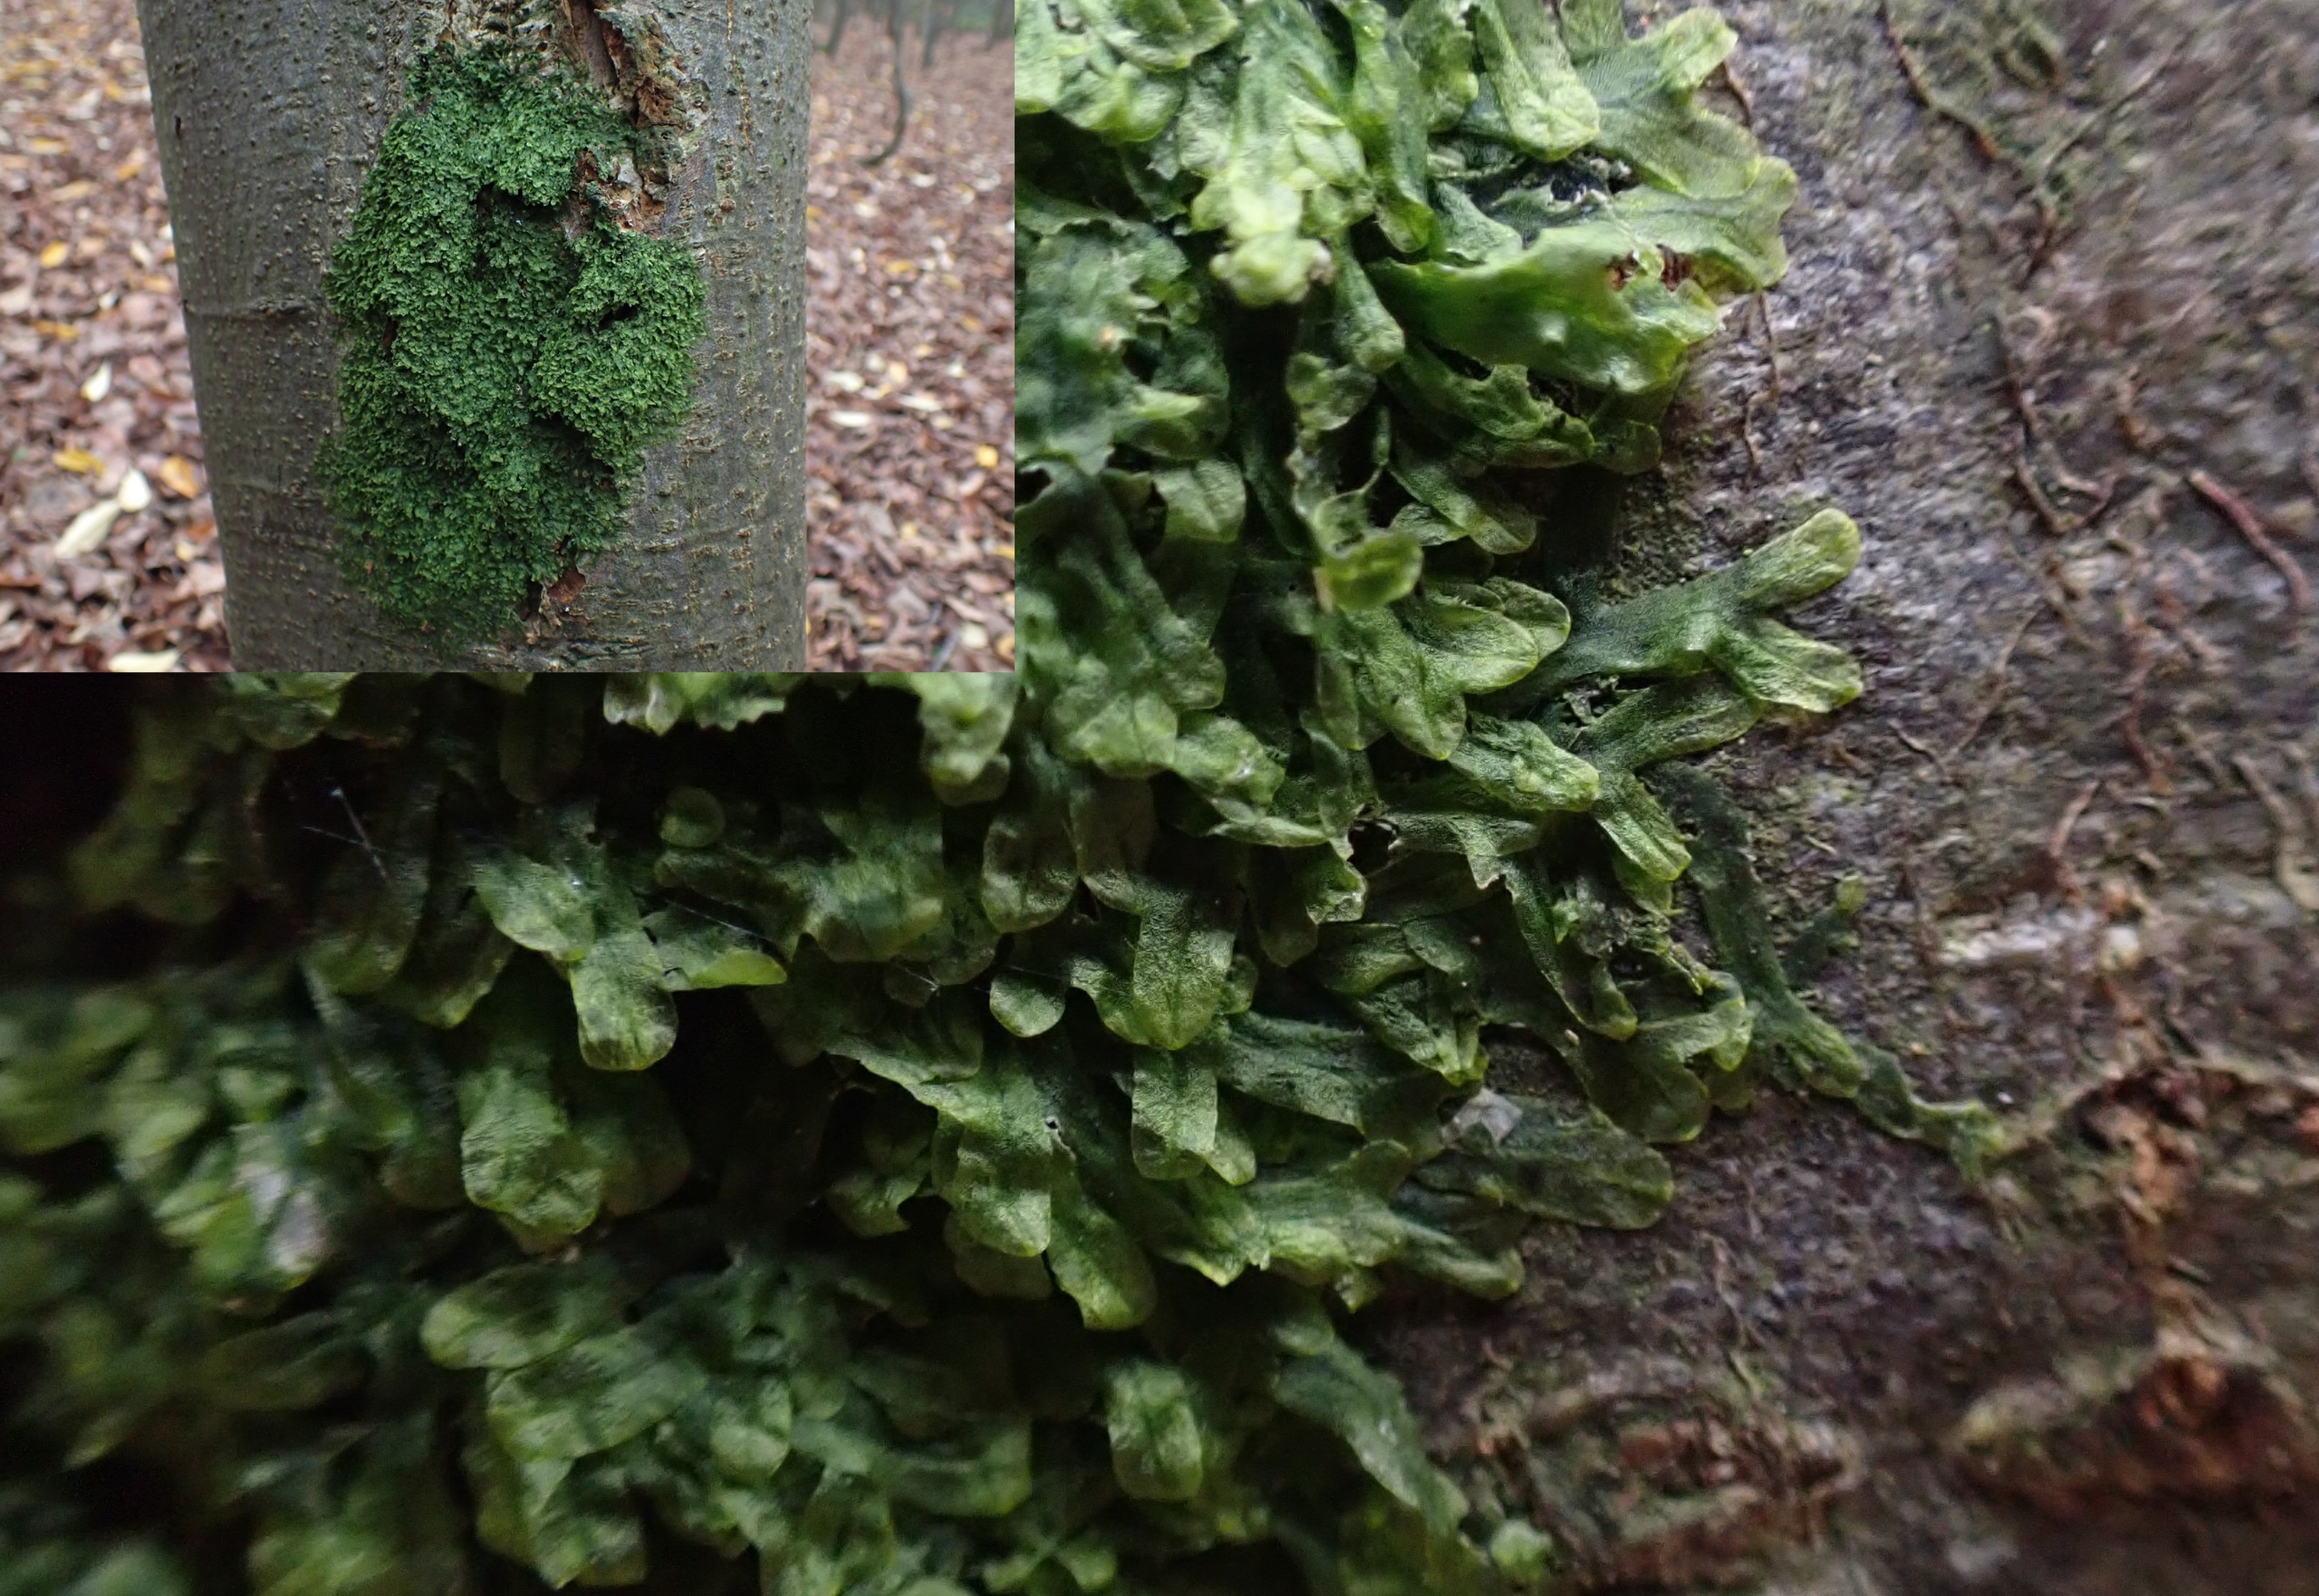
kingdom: Plantae
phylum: Marchantiophyta
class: Jungermanniopsida
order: Metzgeriales
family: Metzgeriaceae
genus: Metzgeria
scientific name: Metzgeria furcata
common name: Almindelig gaffelløv
